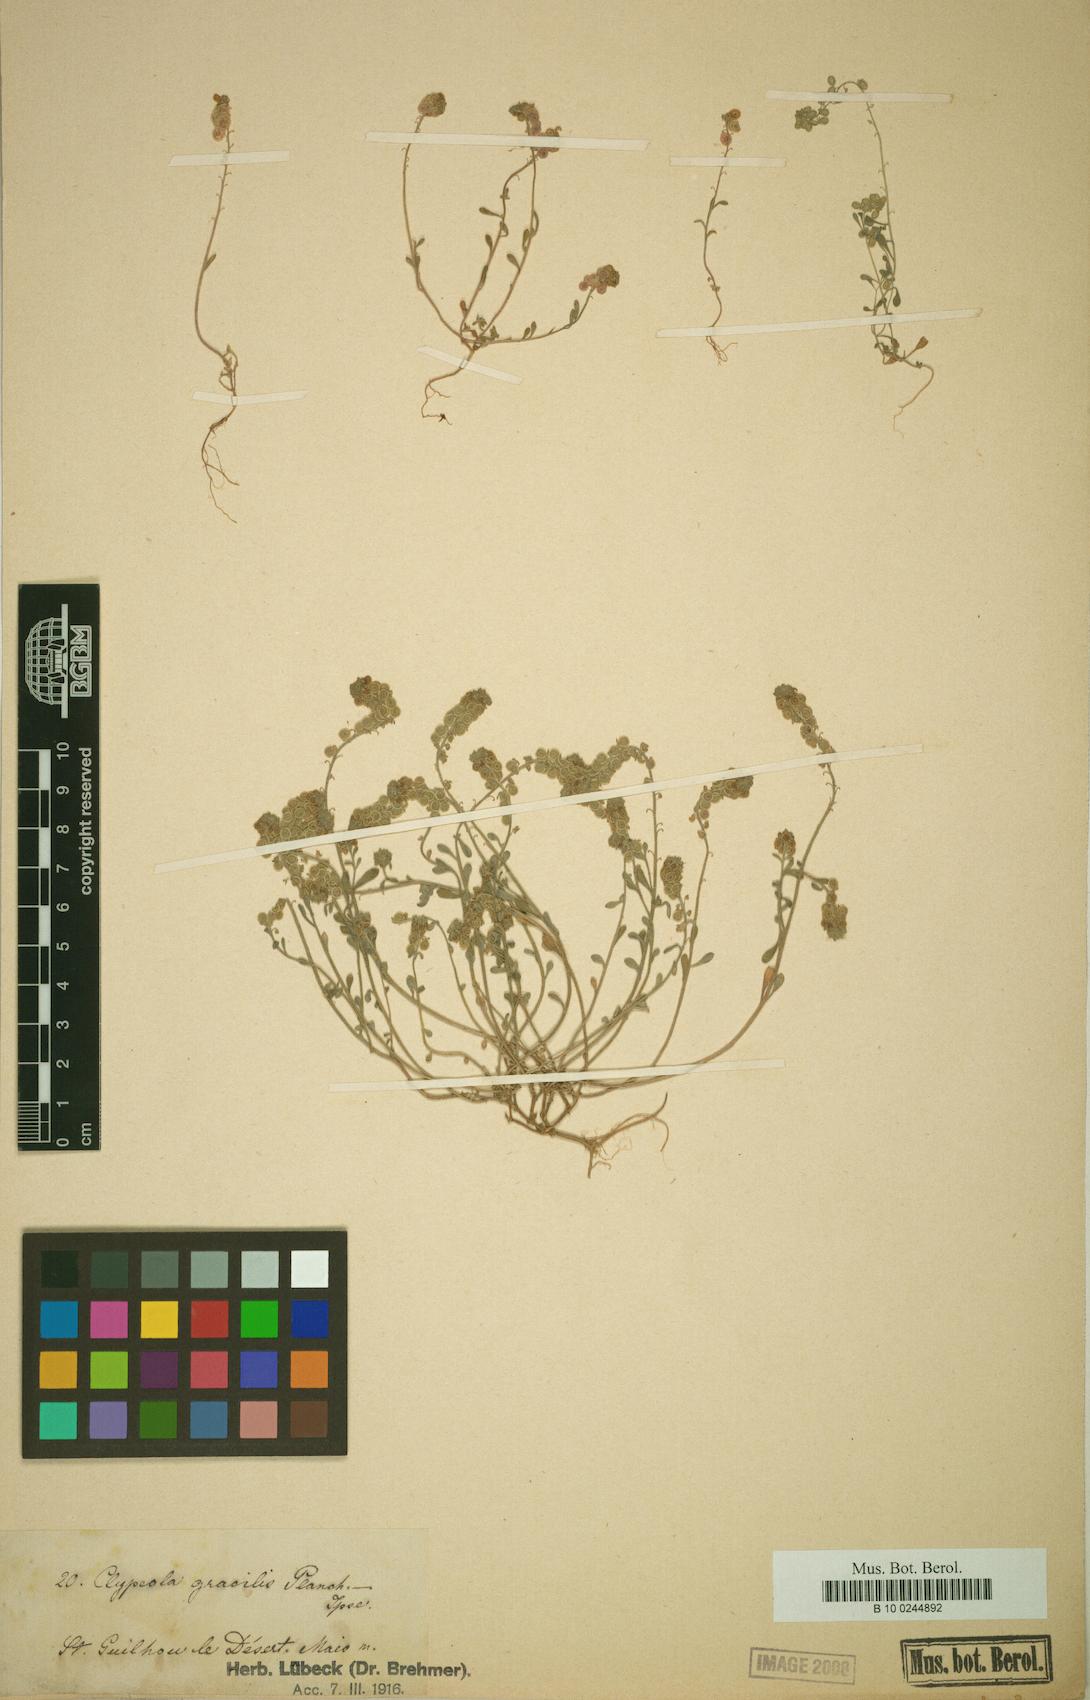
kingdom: Plantae
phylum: Tracheophyta
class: Magnoliopsida
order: Brassicales
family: Brassicaceae
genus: Clypeola
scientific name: Clypeola jonthlaspi
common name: Disk cress
